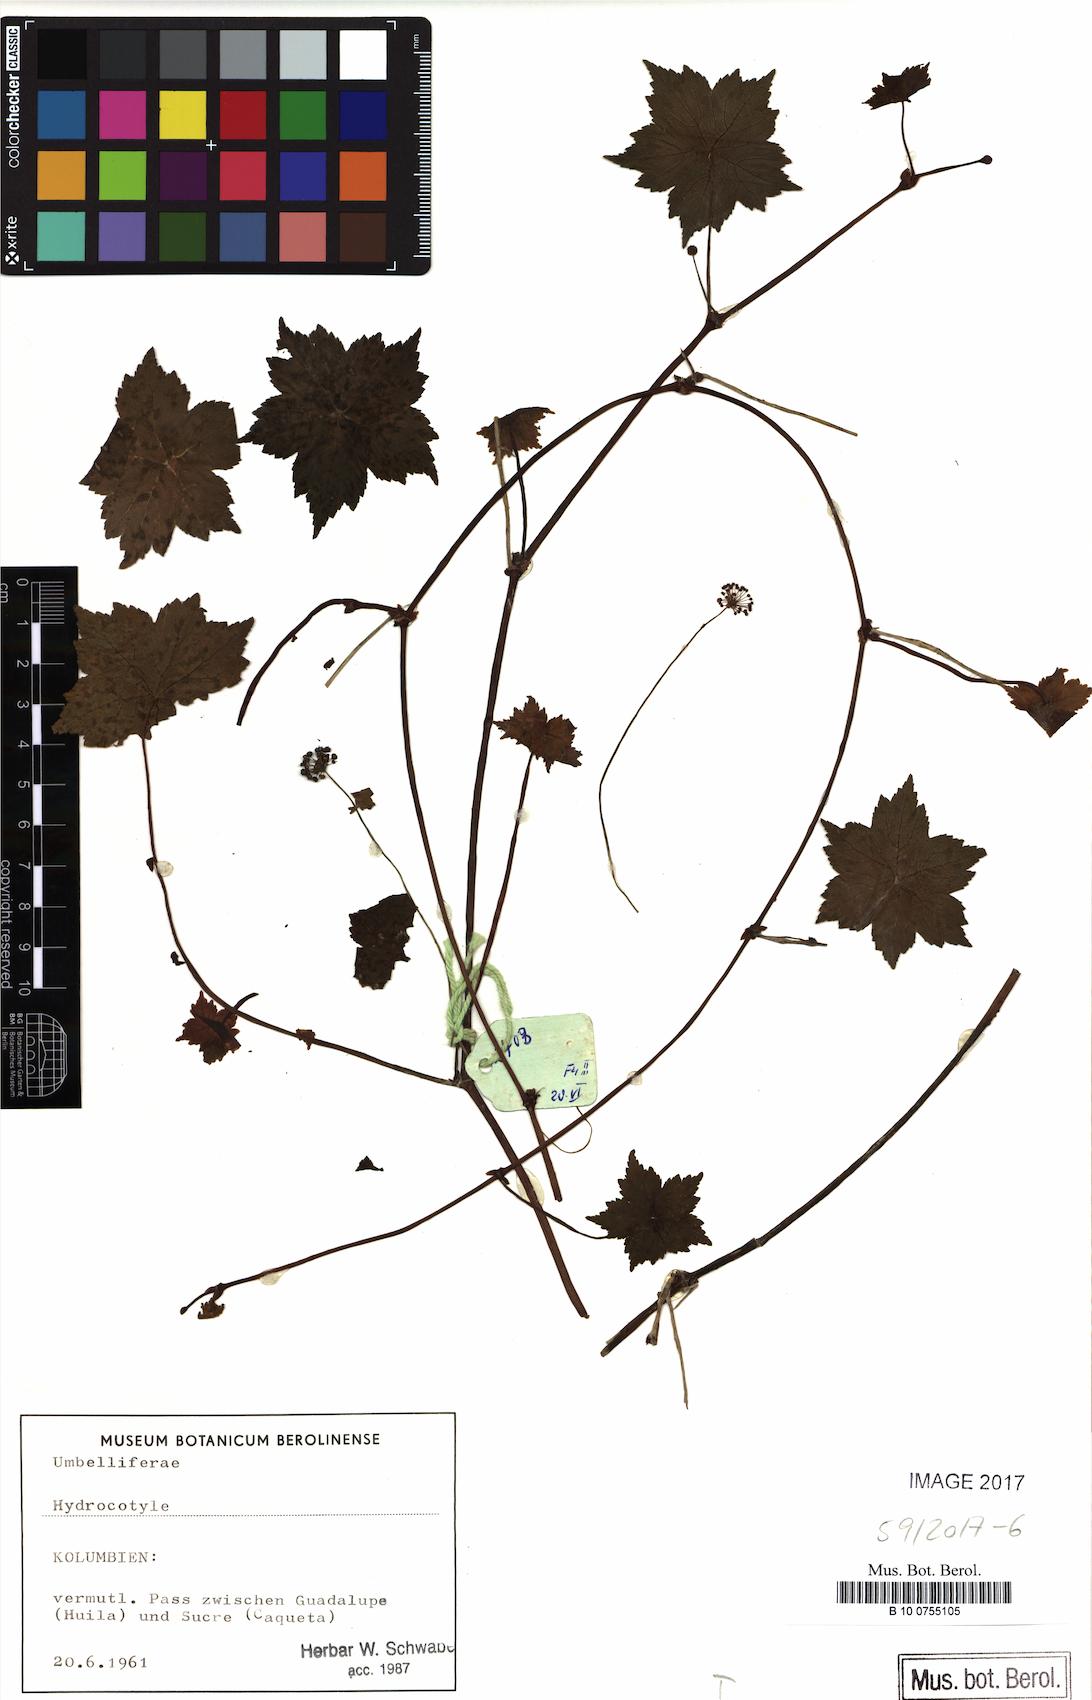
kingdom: Plantae
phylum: Tracheophyta
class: Magnoliopsida
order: Apiales
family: Araliaceae
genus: Hydrocotyle
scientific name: Hydrocotyle
